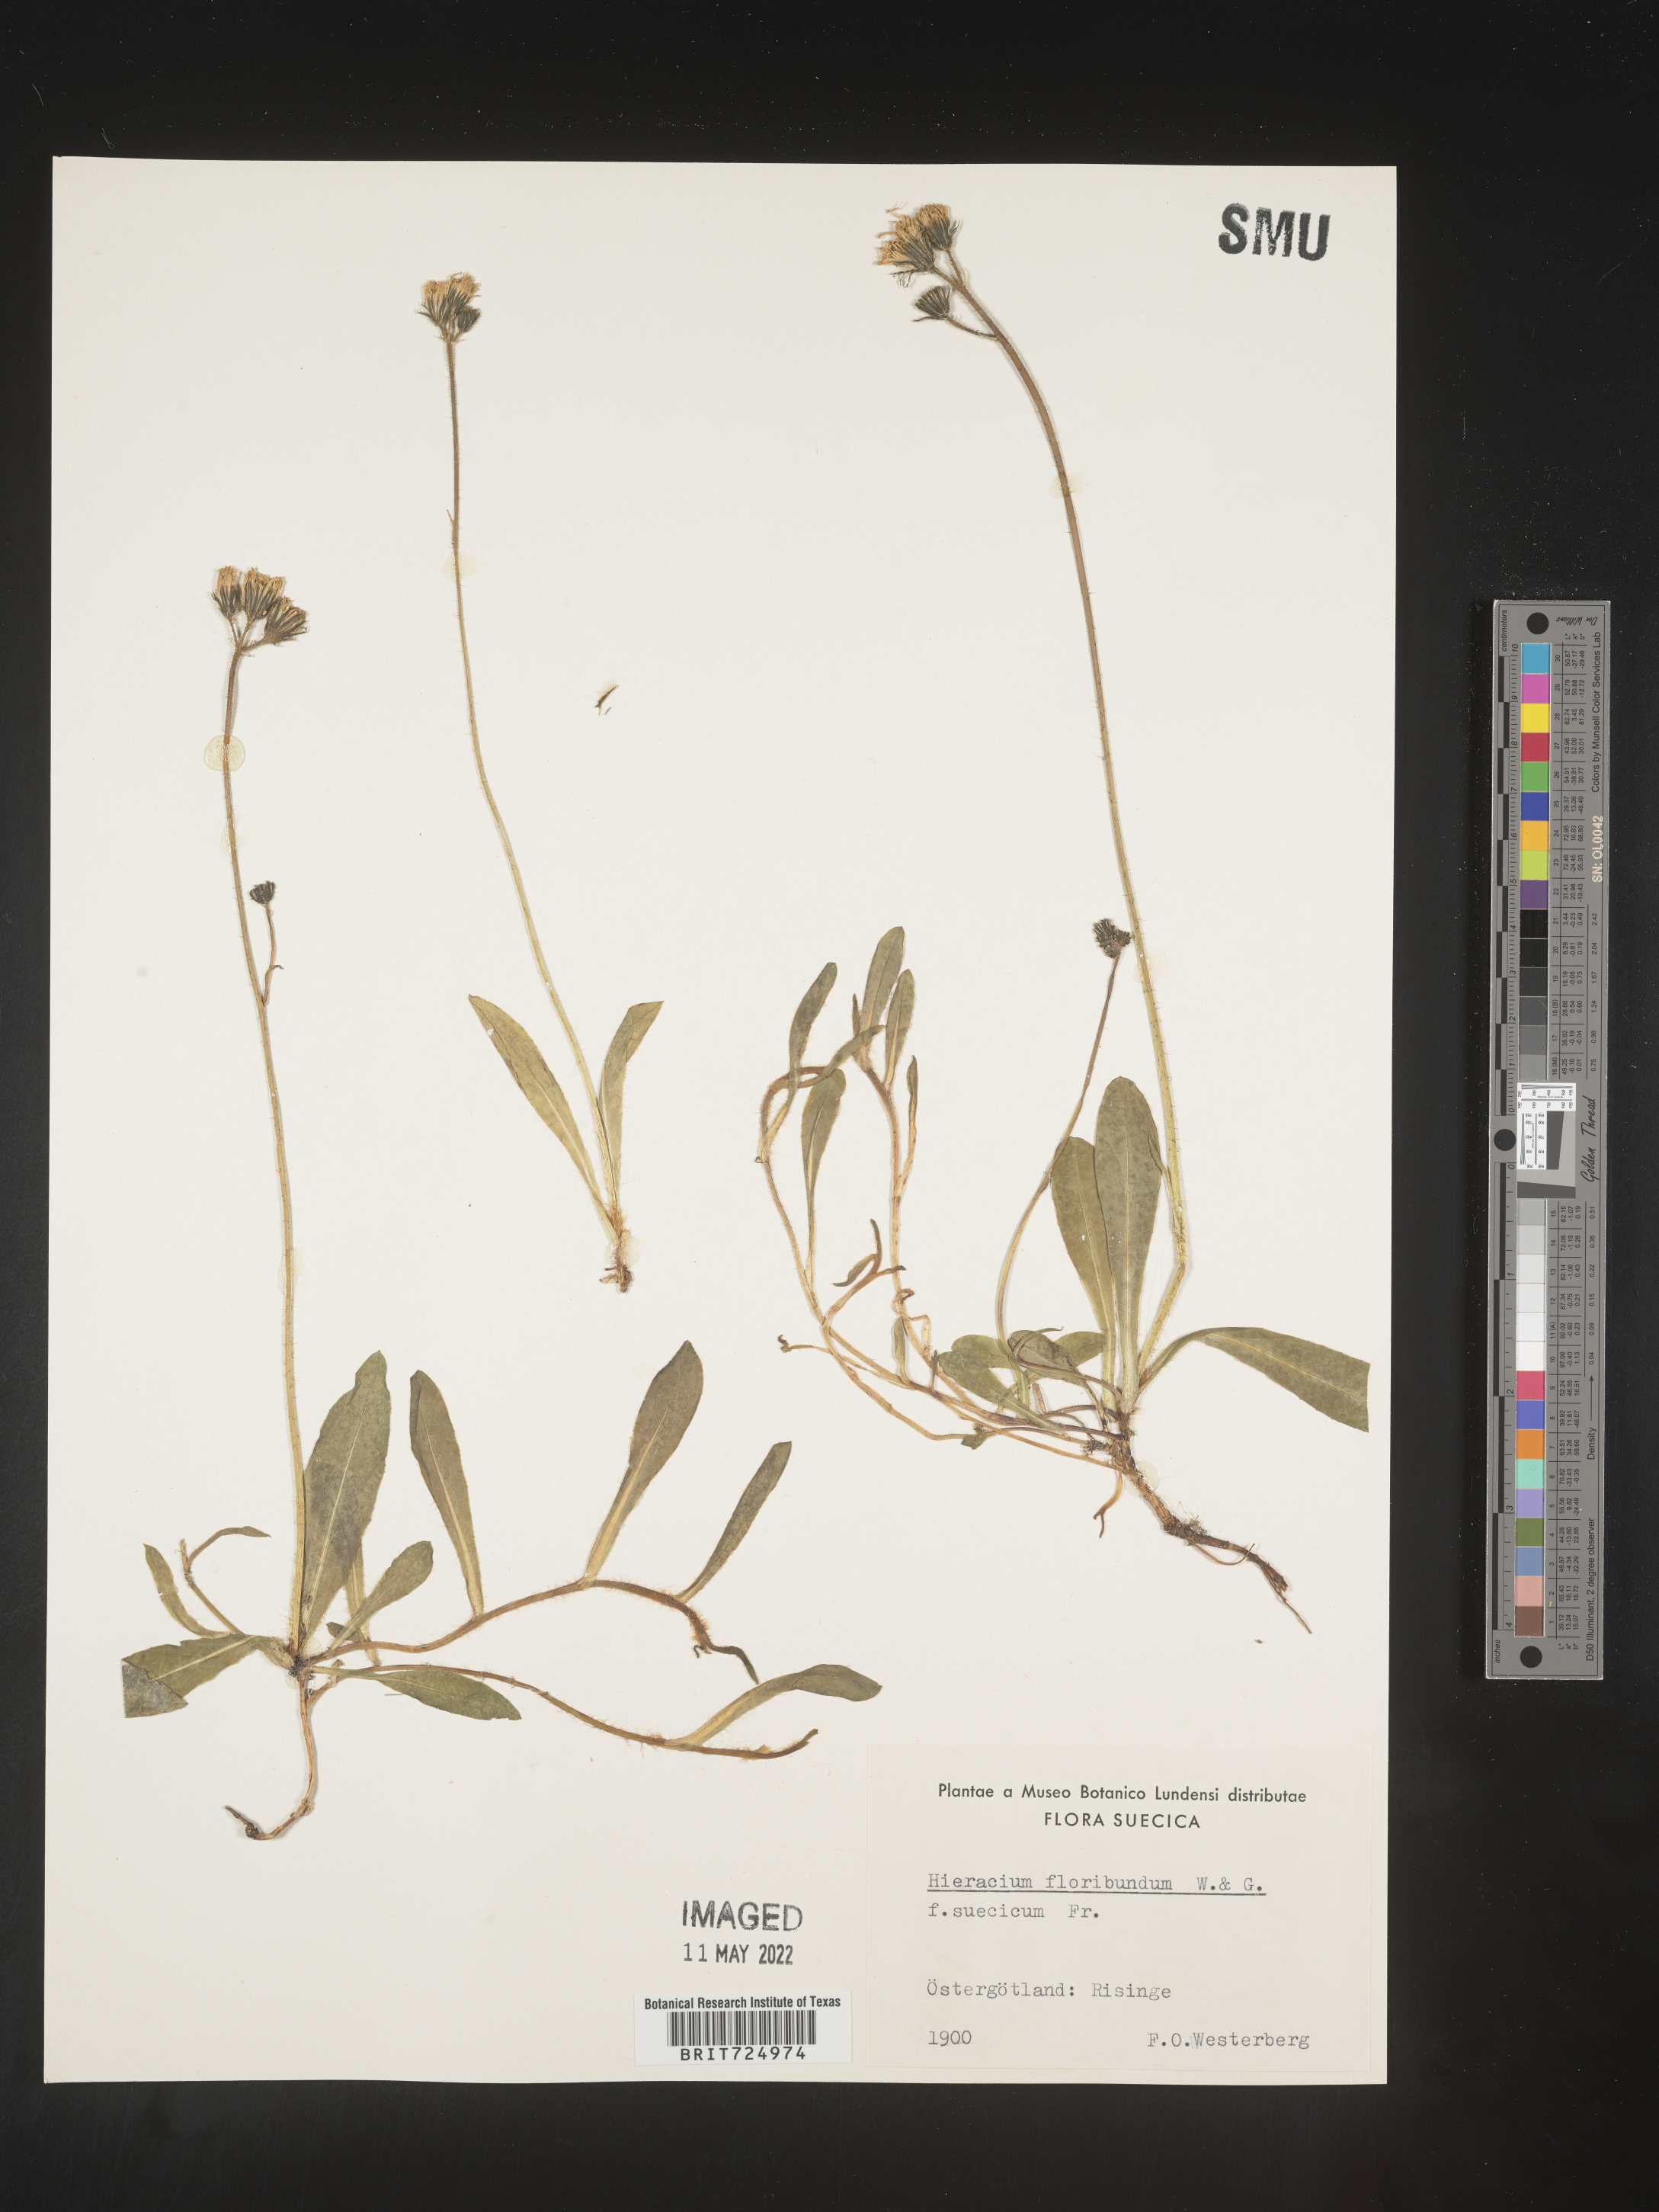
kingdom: Plantae
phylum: Tracheophyta
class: Magnoliopsida
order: Asterales
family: Asteraceae
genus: Hieracium
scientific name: Hieracium
